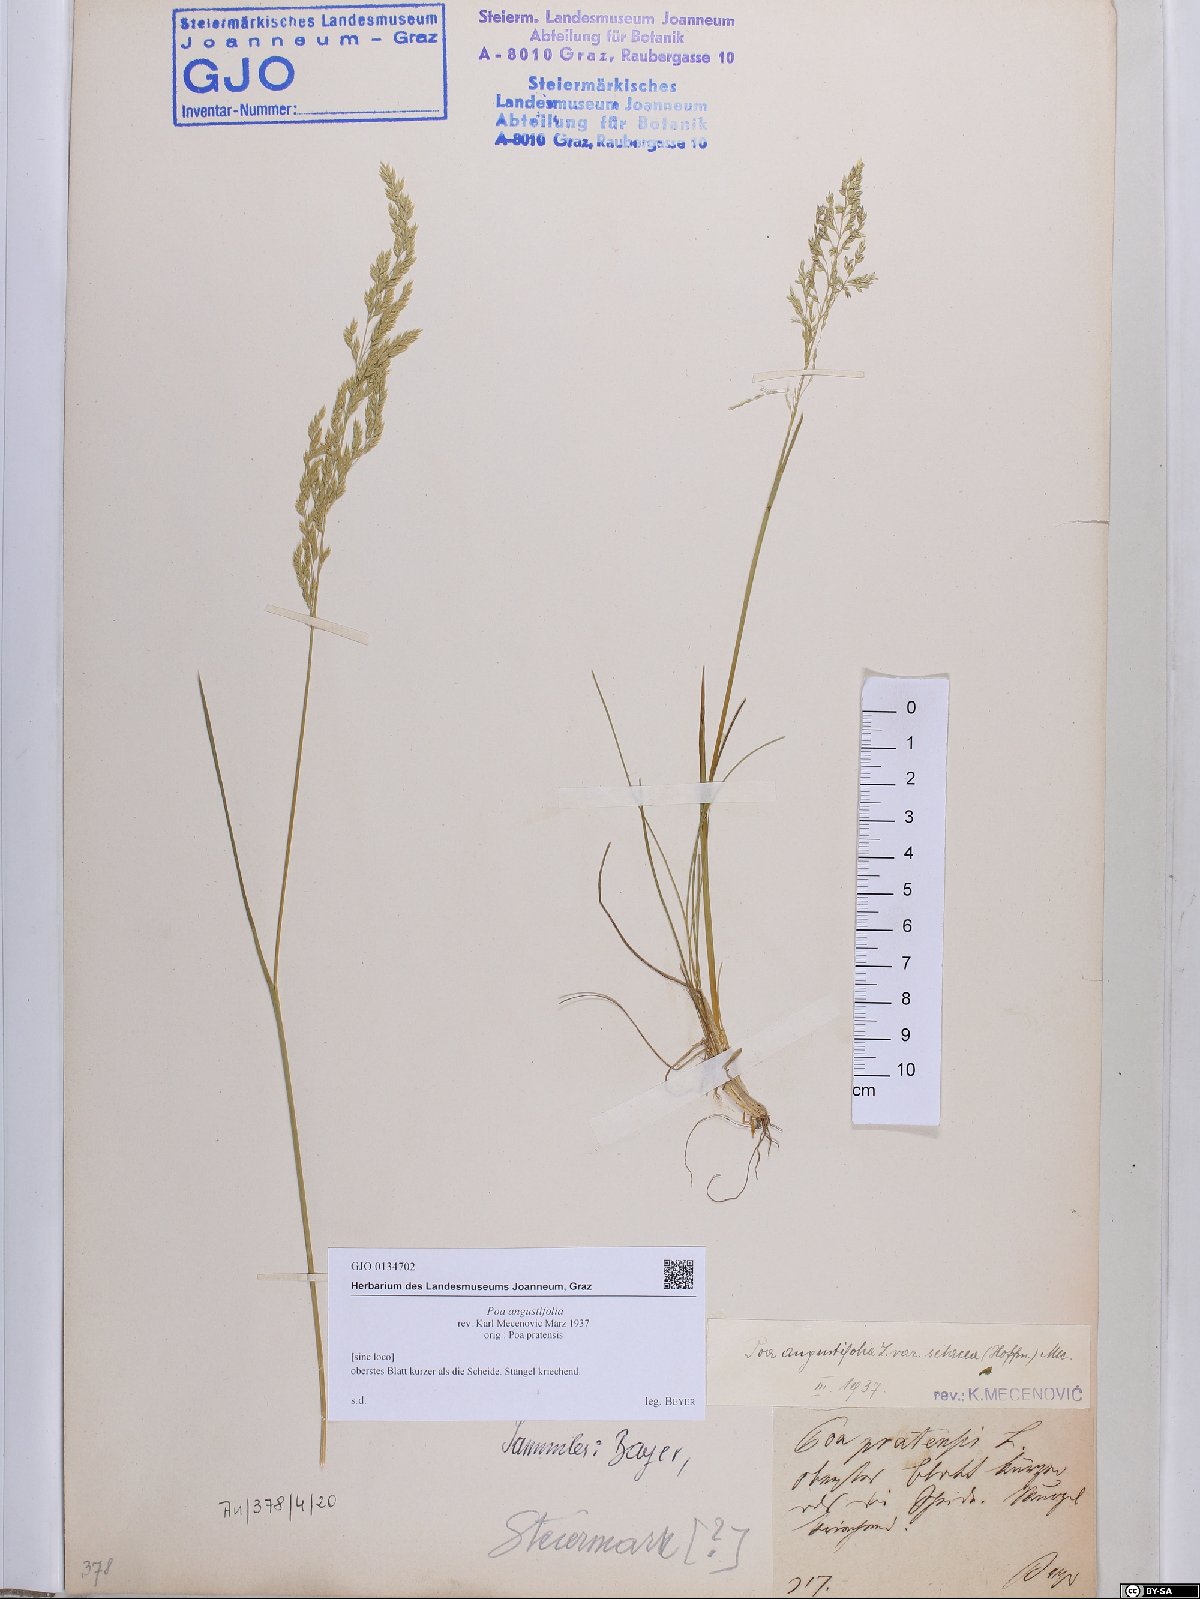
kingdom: Plantae
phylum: Tracheophyta
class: Liliopsida
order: Poales
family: Poaceae
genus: Poa
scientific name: Poa angustifolia
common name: Narrow-leaved meadow-grass
